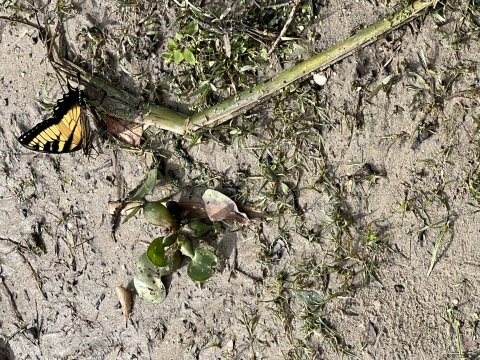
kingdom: Animalia
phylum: Arthropoda
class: Insecta
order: Lepidoptera
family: Papilionidae
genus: Pterourus
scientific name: Pterourus glaucus
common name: Eastern Tiger Swallowtail
